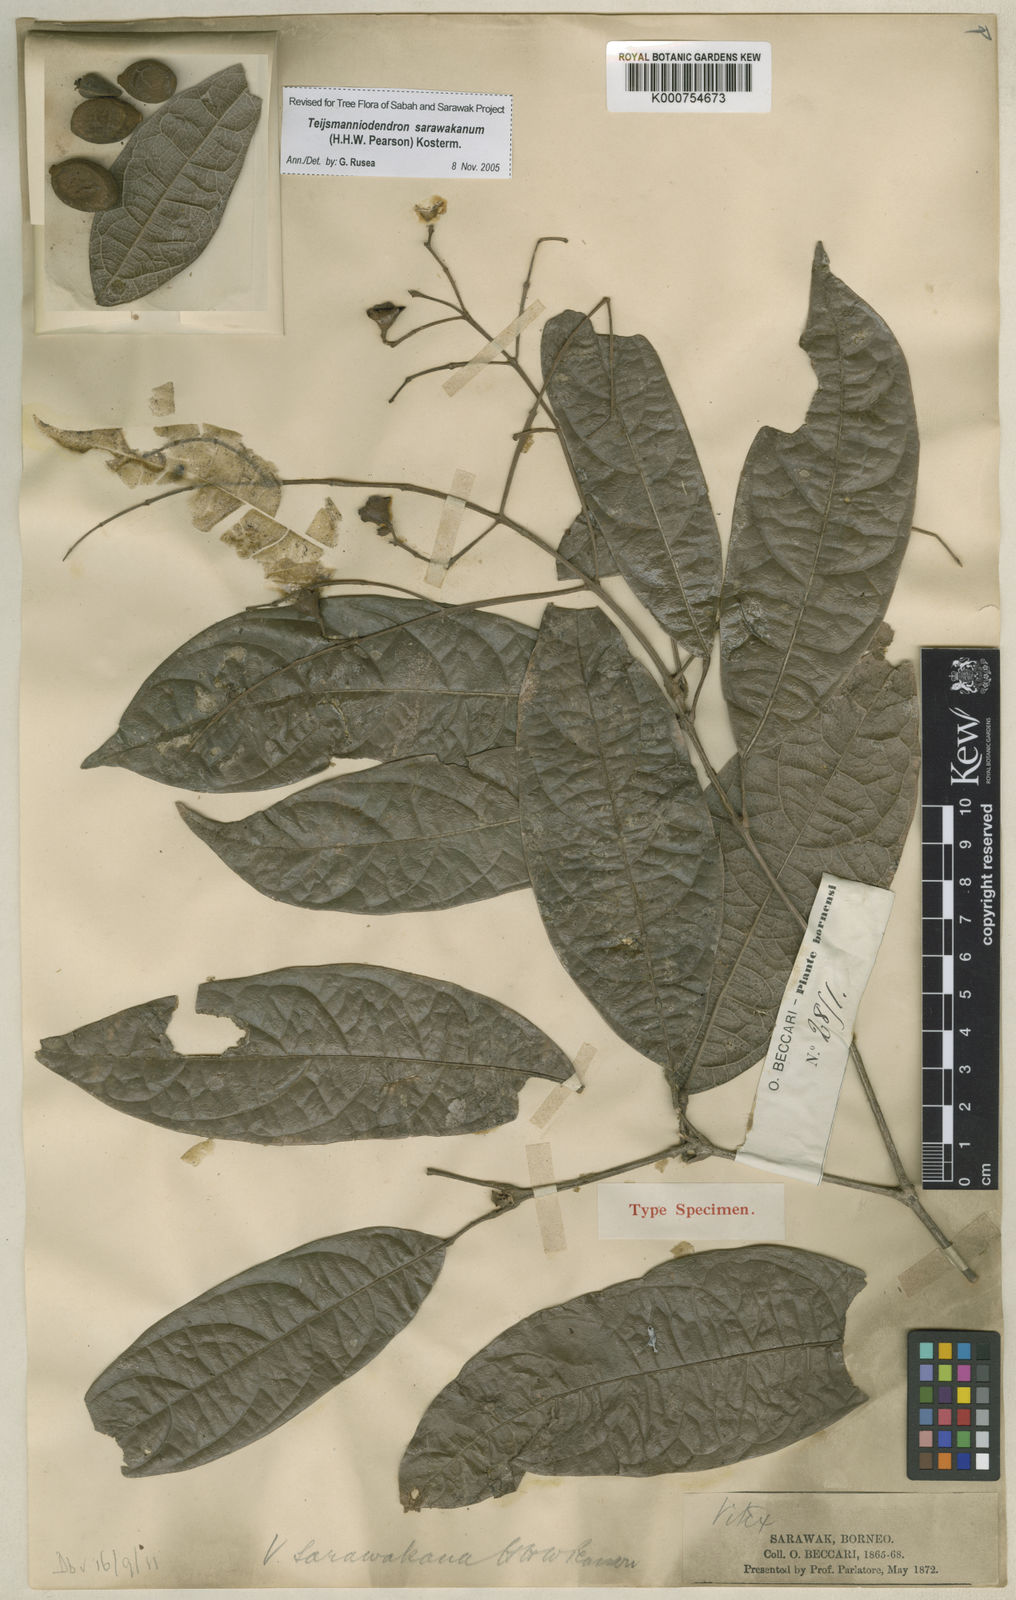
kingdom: Plantae
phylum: Tracheophyta
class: Magnoliopsida
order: Lamiales
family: Lamiaceae
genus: Teijsmanniodendron
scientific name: Teijsmanniodendron sarawakanum
